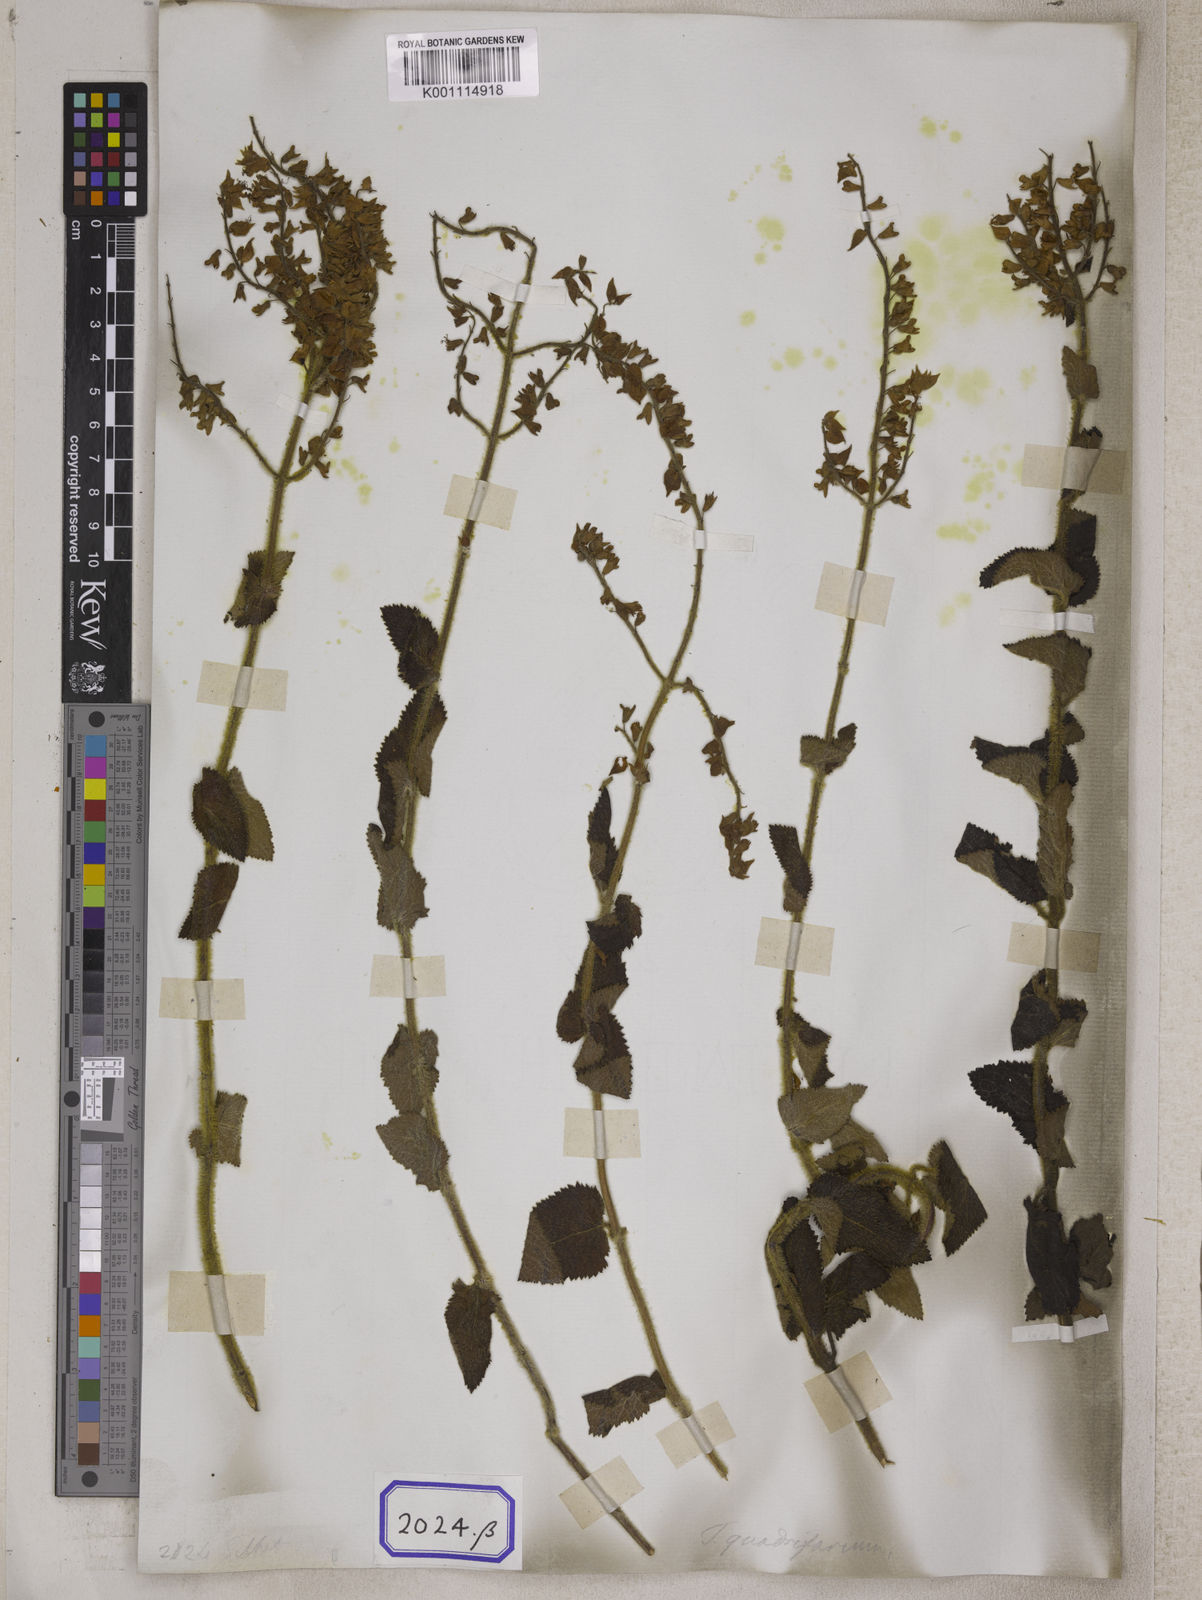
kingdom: Plantae
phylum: Tracheophyta
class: Magnoliopsida
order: Lamiales
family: Lamiaceae
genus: Teucrium
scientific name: Teucrium
